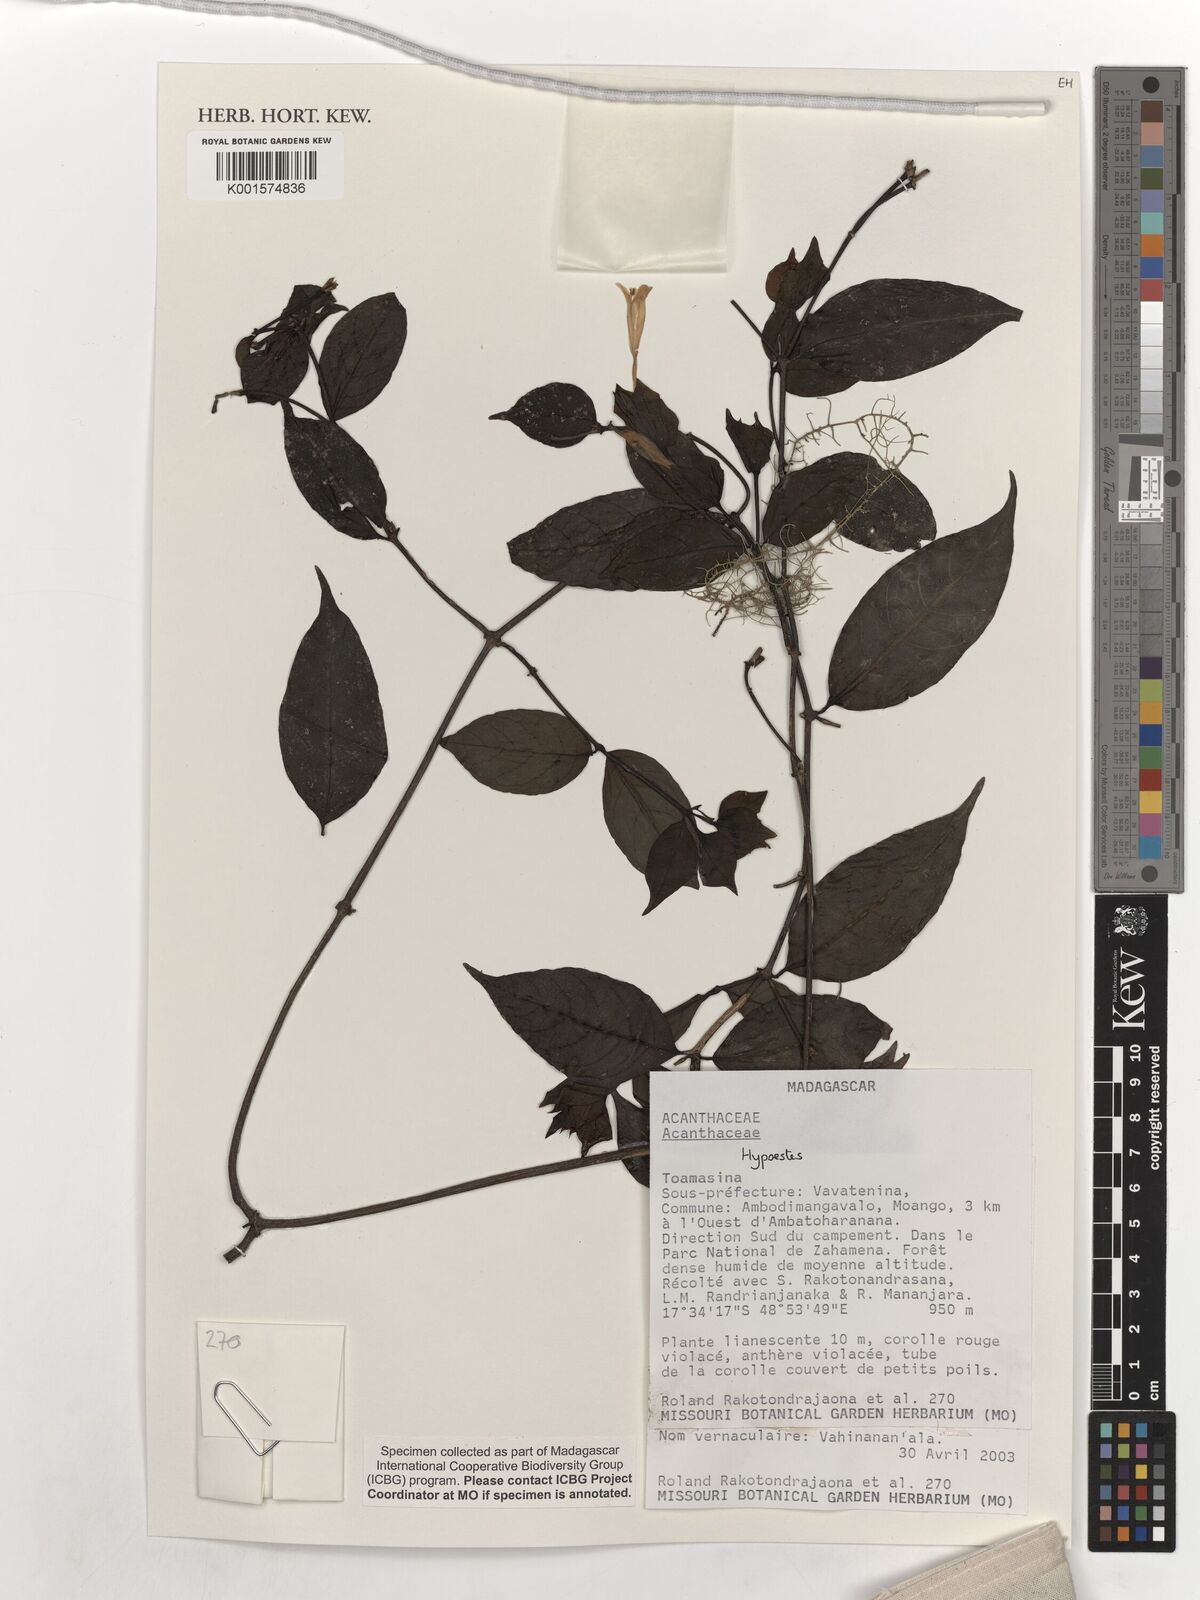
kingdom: Plantae
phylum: Tracheophyta
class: Magnoliopsida
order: Lamiales
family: Acanthaceae
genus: Hypoestes
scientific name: Hypoestes
